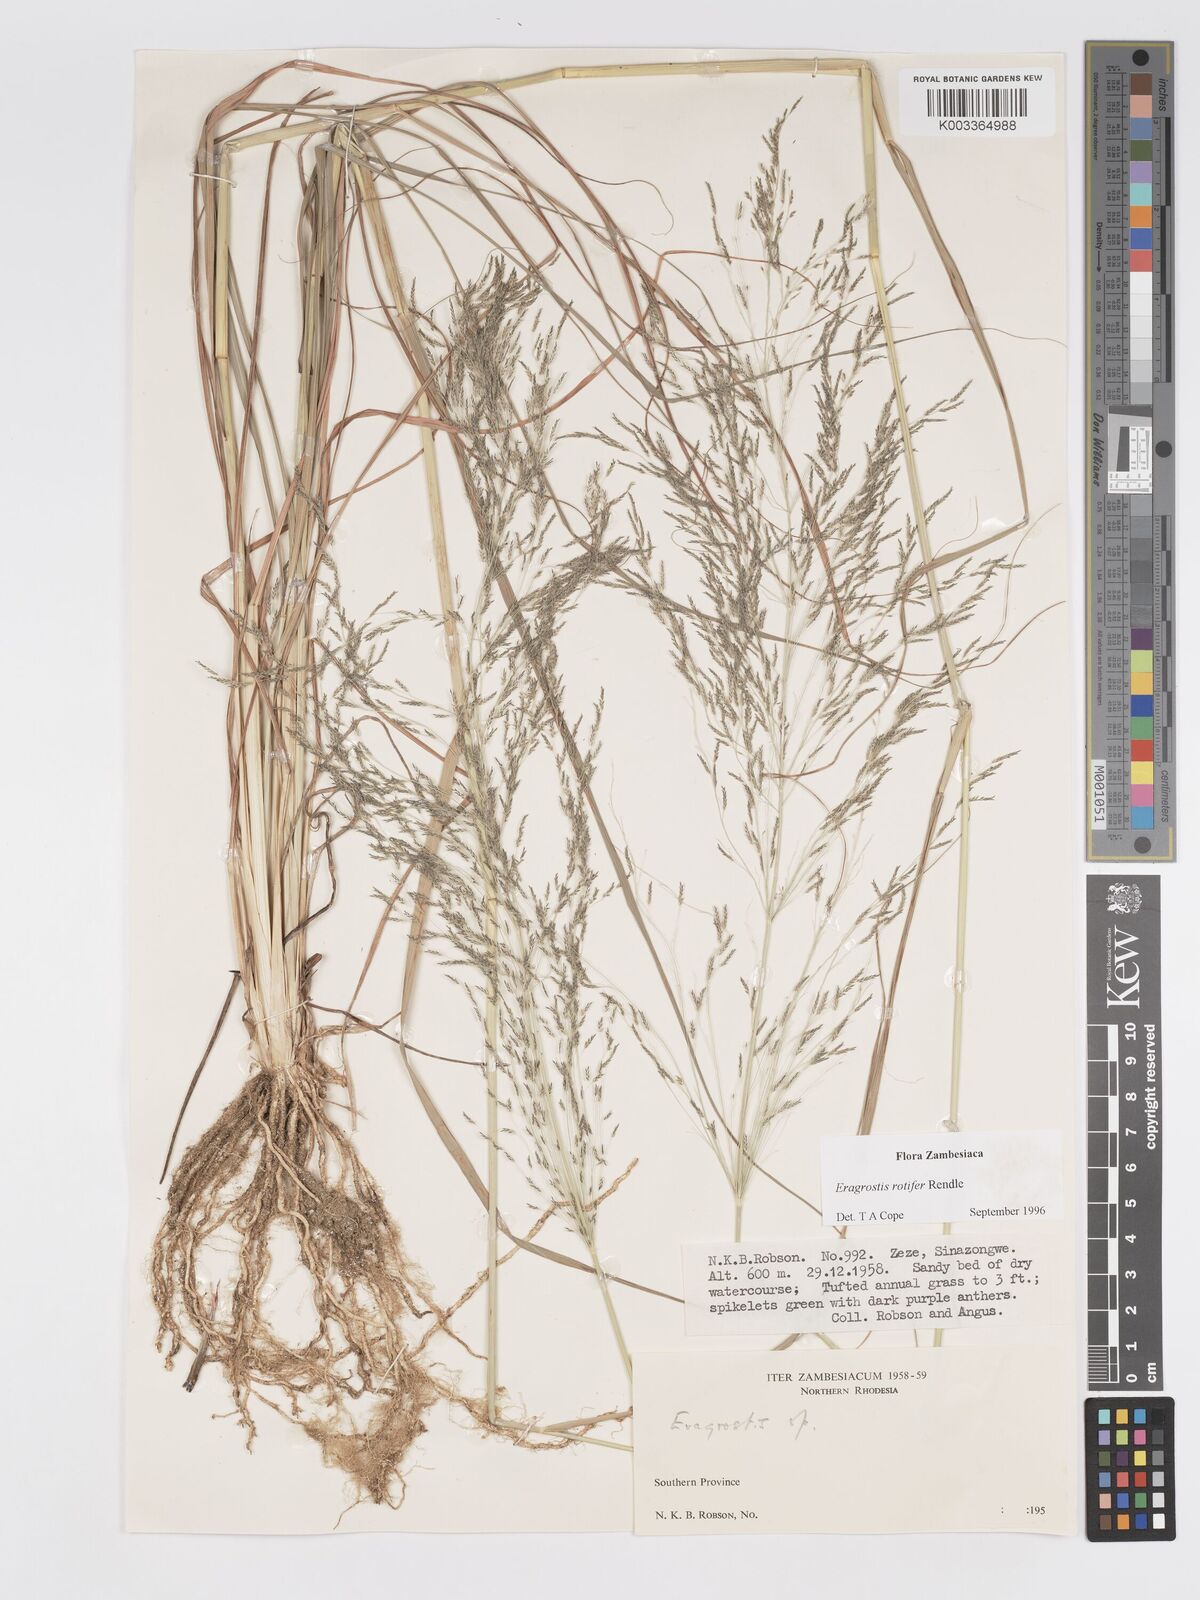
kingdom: Plantae
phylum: Tracheophyta
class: Liliopsida
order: Poales
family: Poaceae
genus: Eragrostis
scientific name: Eragrostis rotifer
